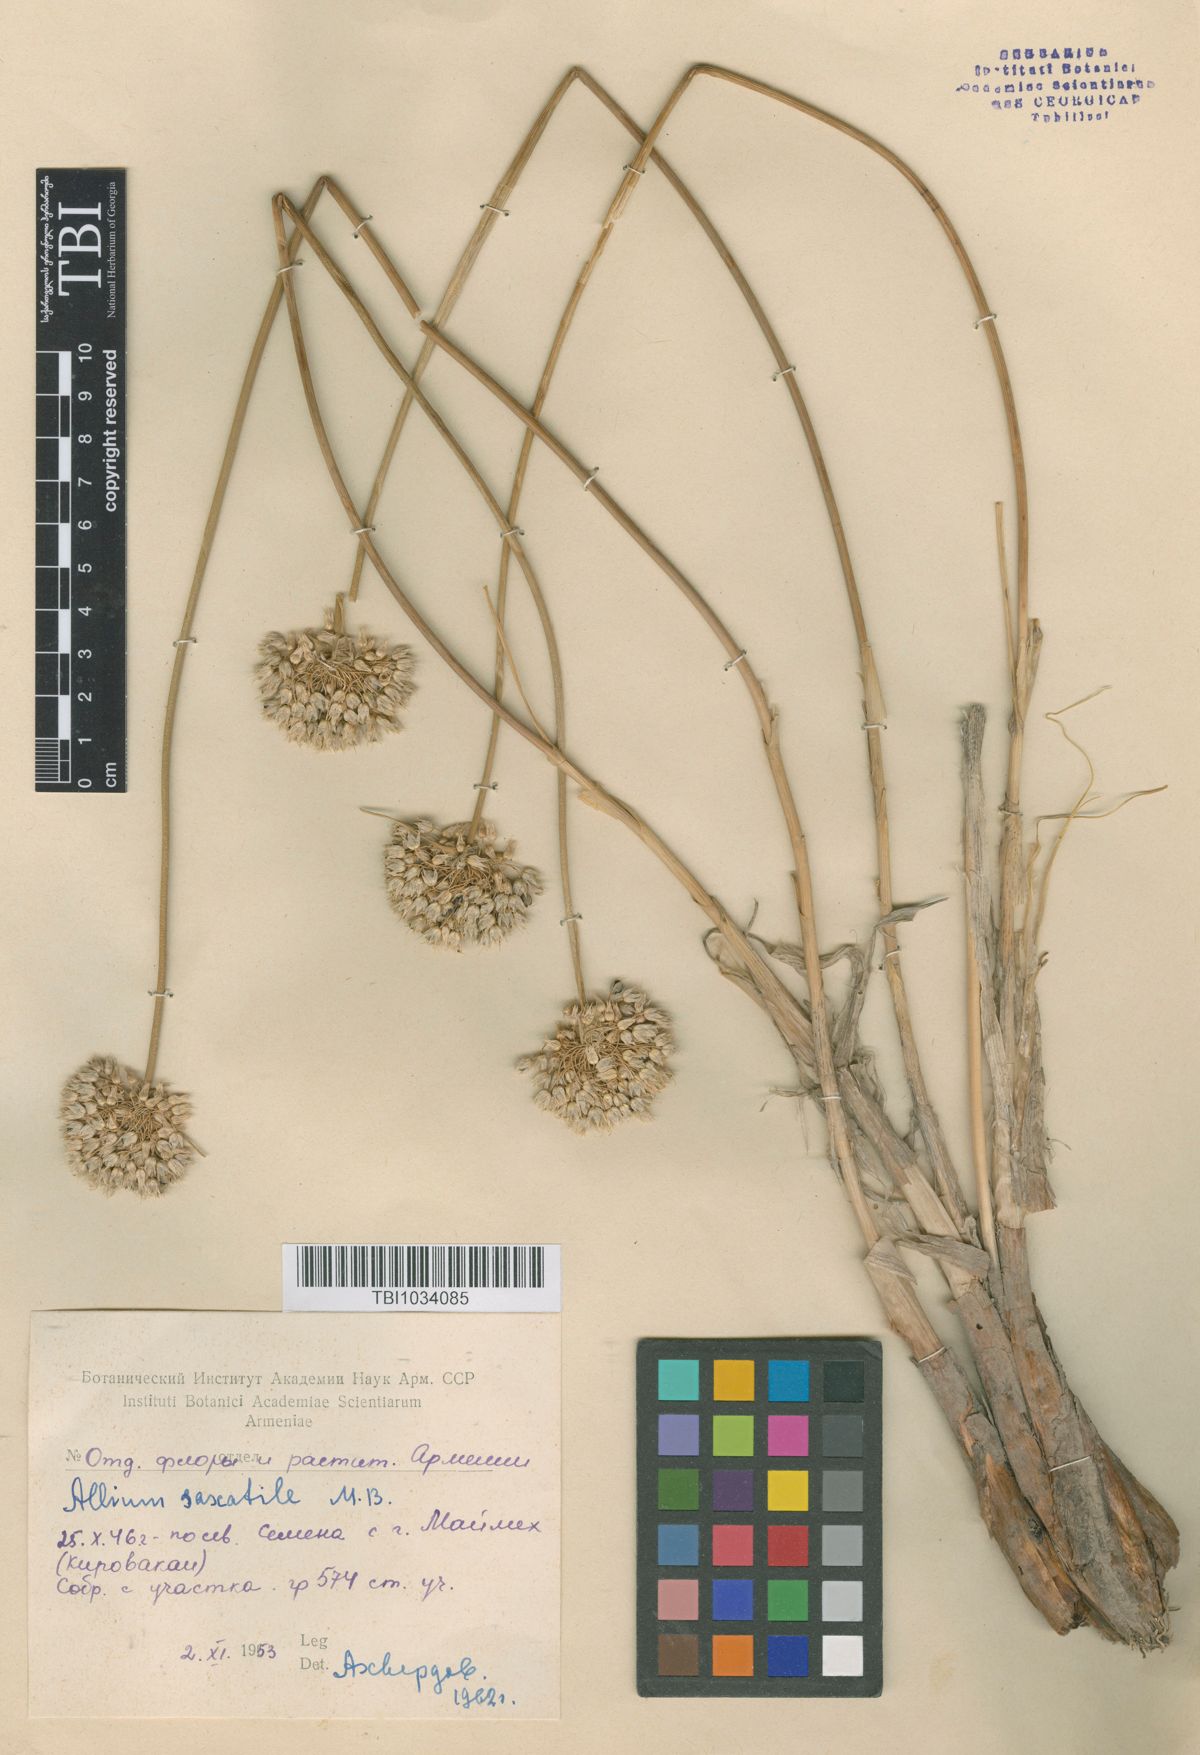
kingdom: Plantae
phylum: Tracheophyta
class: Liliopsida
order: Asparagales
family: Amaryllidaceae
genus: Allium
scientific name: Allium saxatile
